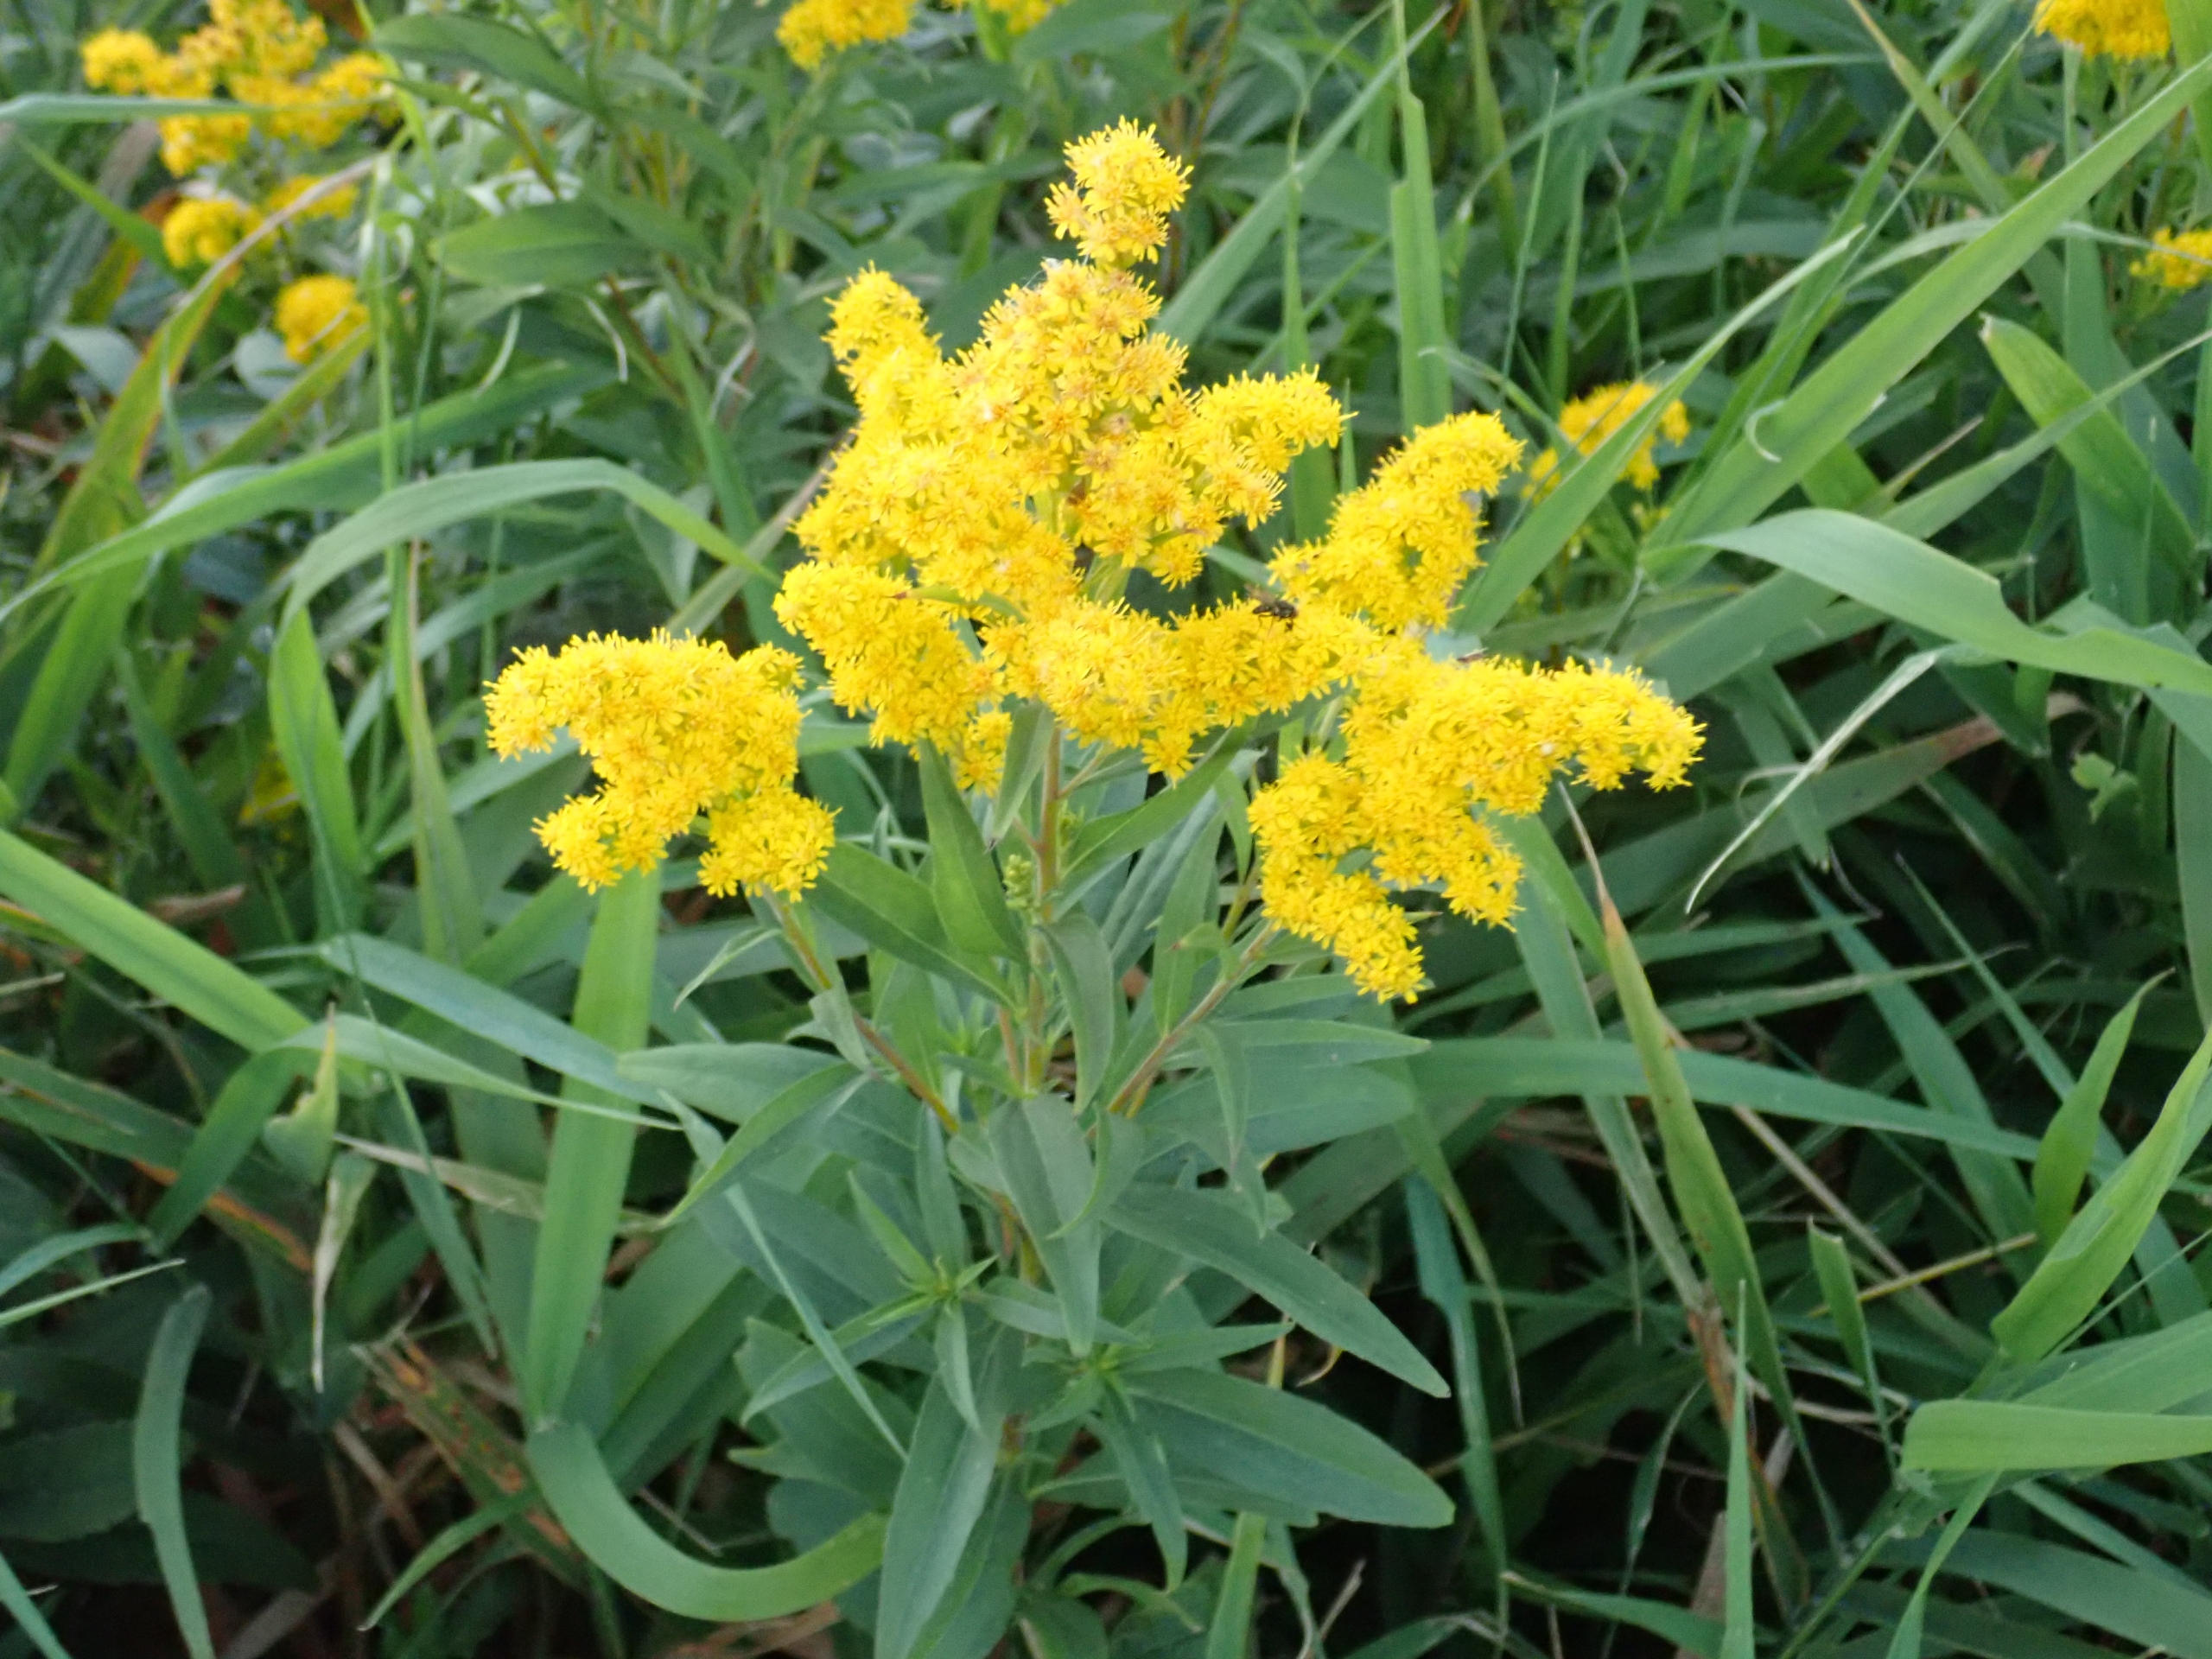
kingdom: Plantae
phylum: Tracheophyta
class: Magnoliopsida
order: Asterales
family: Asteraceae
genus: Solidago
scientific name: Solidago canadensis
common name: Kanadisk gyldenris
